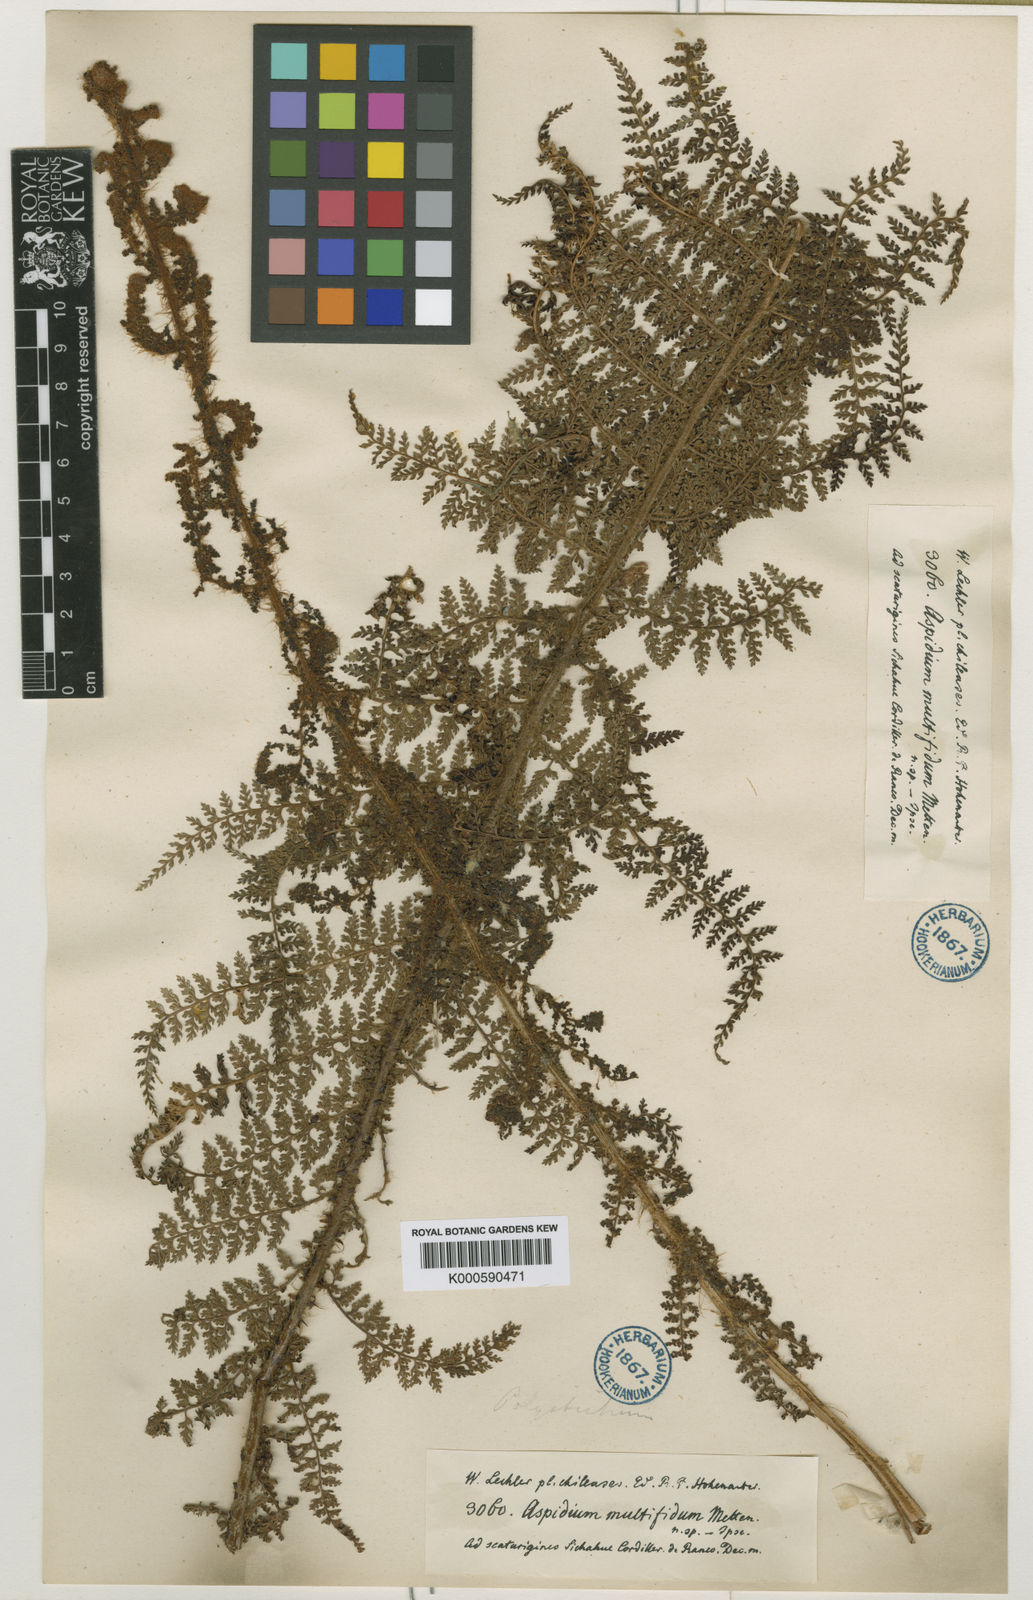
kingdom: Plantae
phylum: Tracheophyta
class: Polypodiopsida
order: Polypodiales
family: Dryopteridaceae
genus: Polystichum
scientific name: Polystichum multifidum
